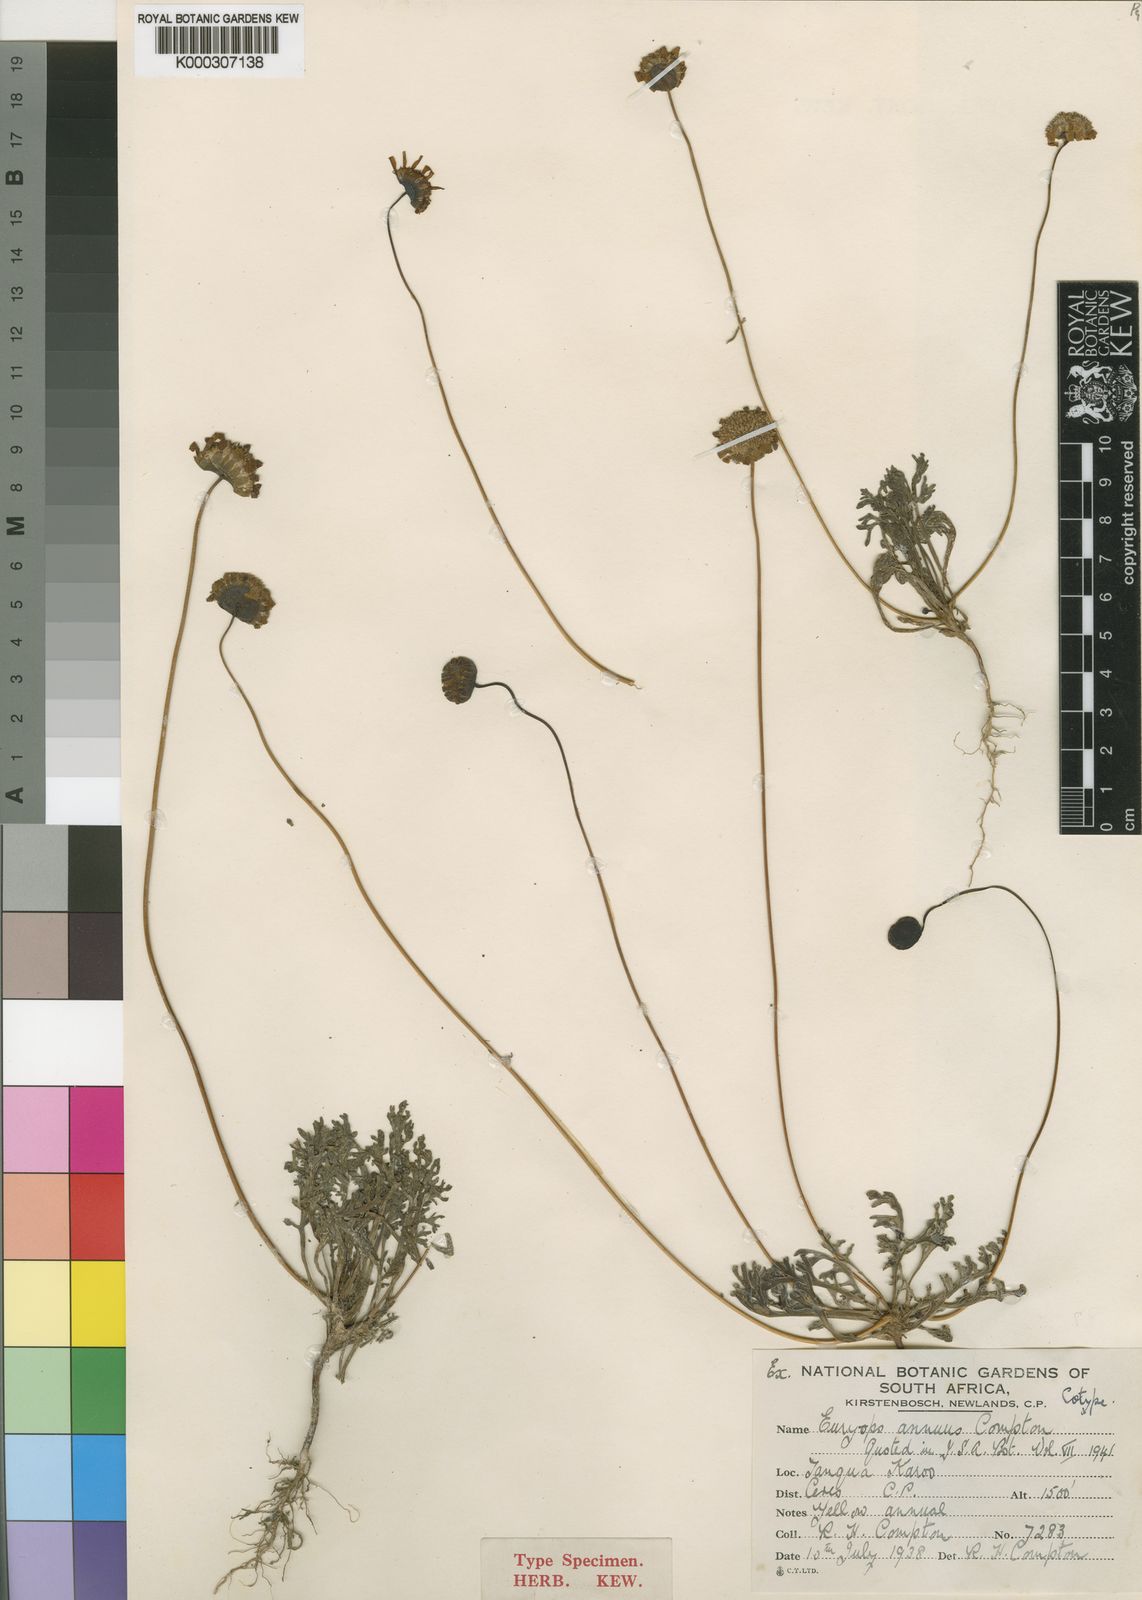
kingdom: Plantae
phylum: Tracheophyta
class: Magnoliopsida
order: Asterales
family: Asteraceae
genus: Euryops
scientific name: Euryops annuus
